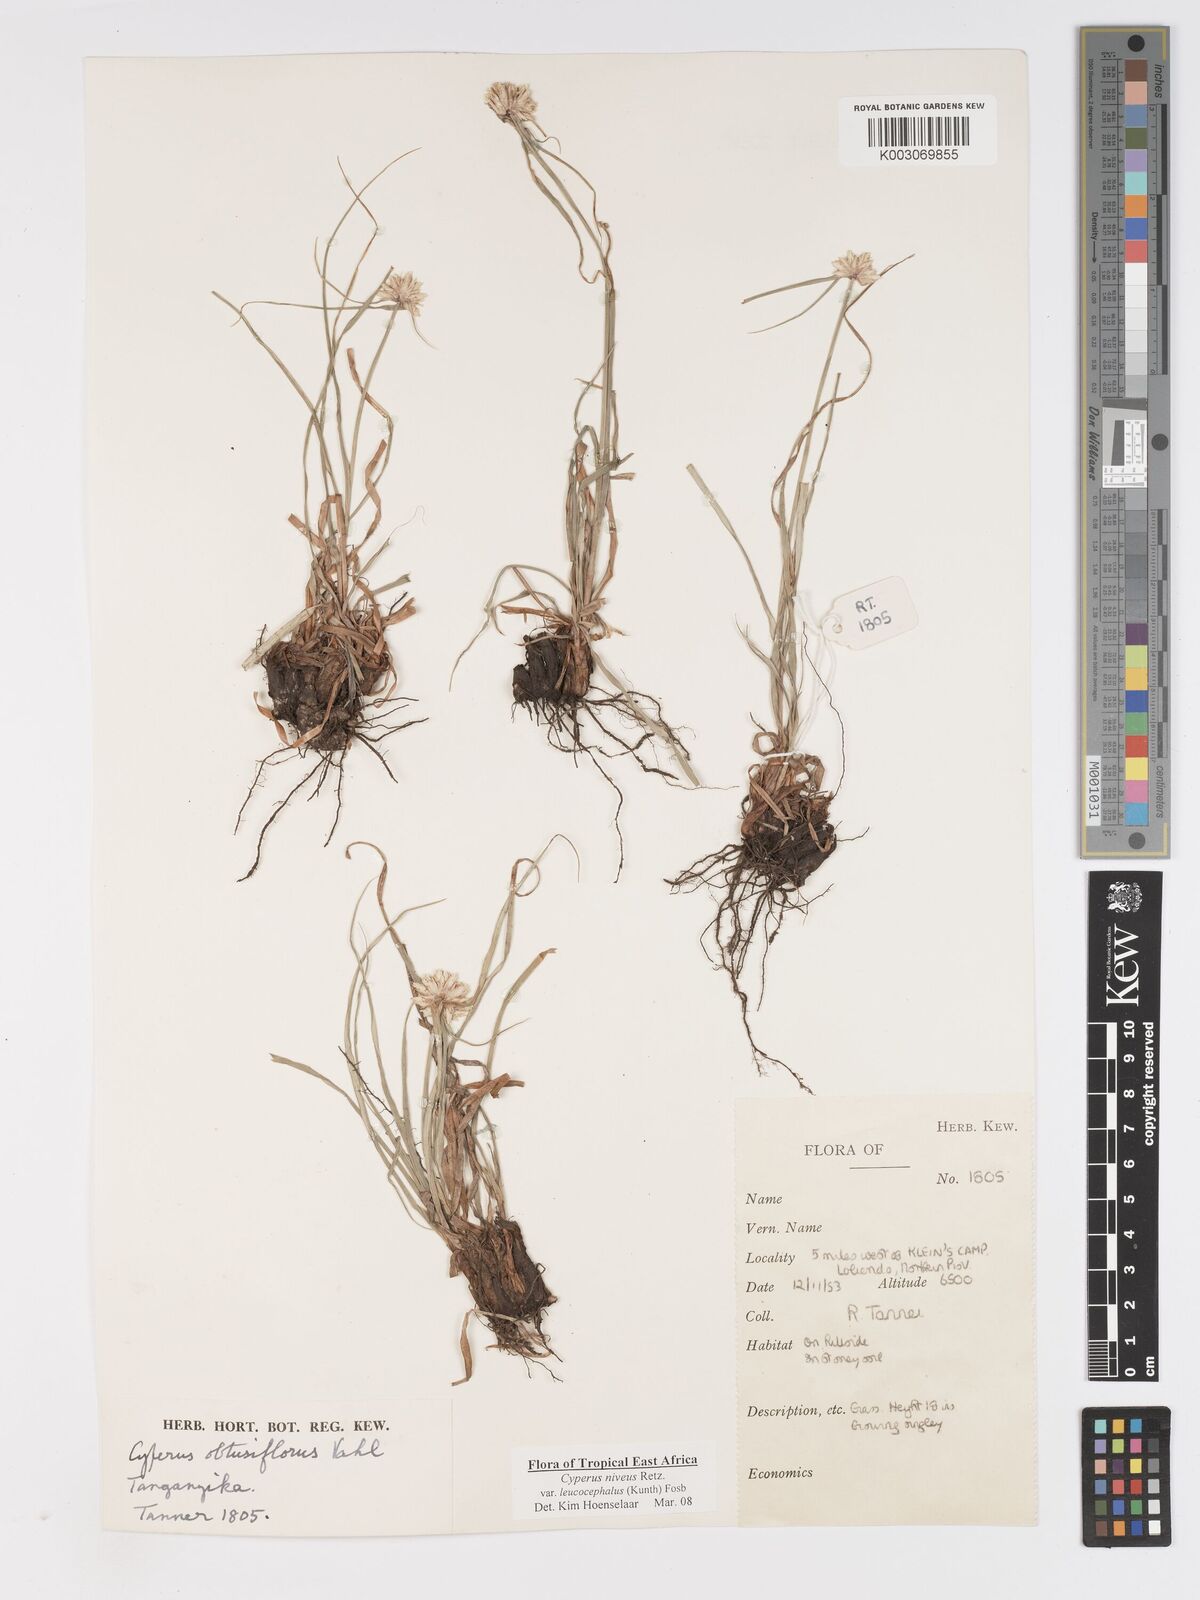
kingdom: Plantae
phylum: Tracheophyta
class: Liliopsida
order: Poales
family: Cyperaceae
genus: Cyperus
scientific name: Cyperus niveus
